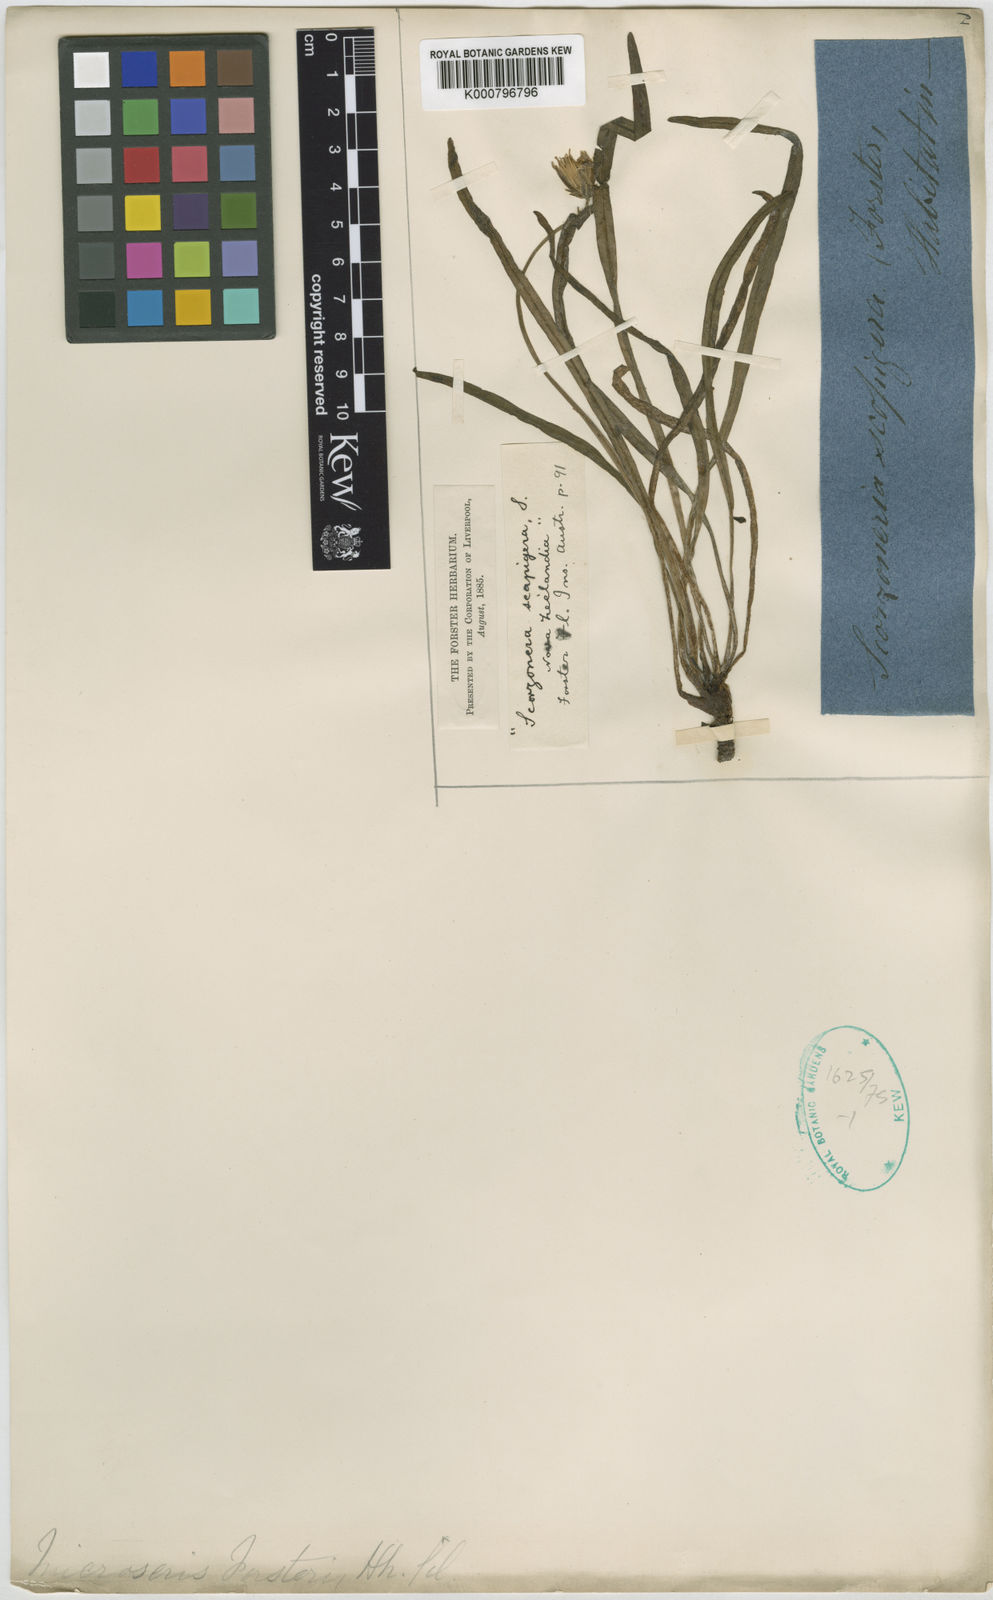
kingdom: Plantae
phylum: Tracheophyta
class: Magnoliopsida
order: Asterales
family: Asteraceae
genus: Microseris
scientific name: Microseris scapigera
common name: Yam daisy
